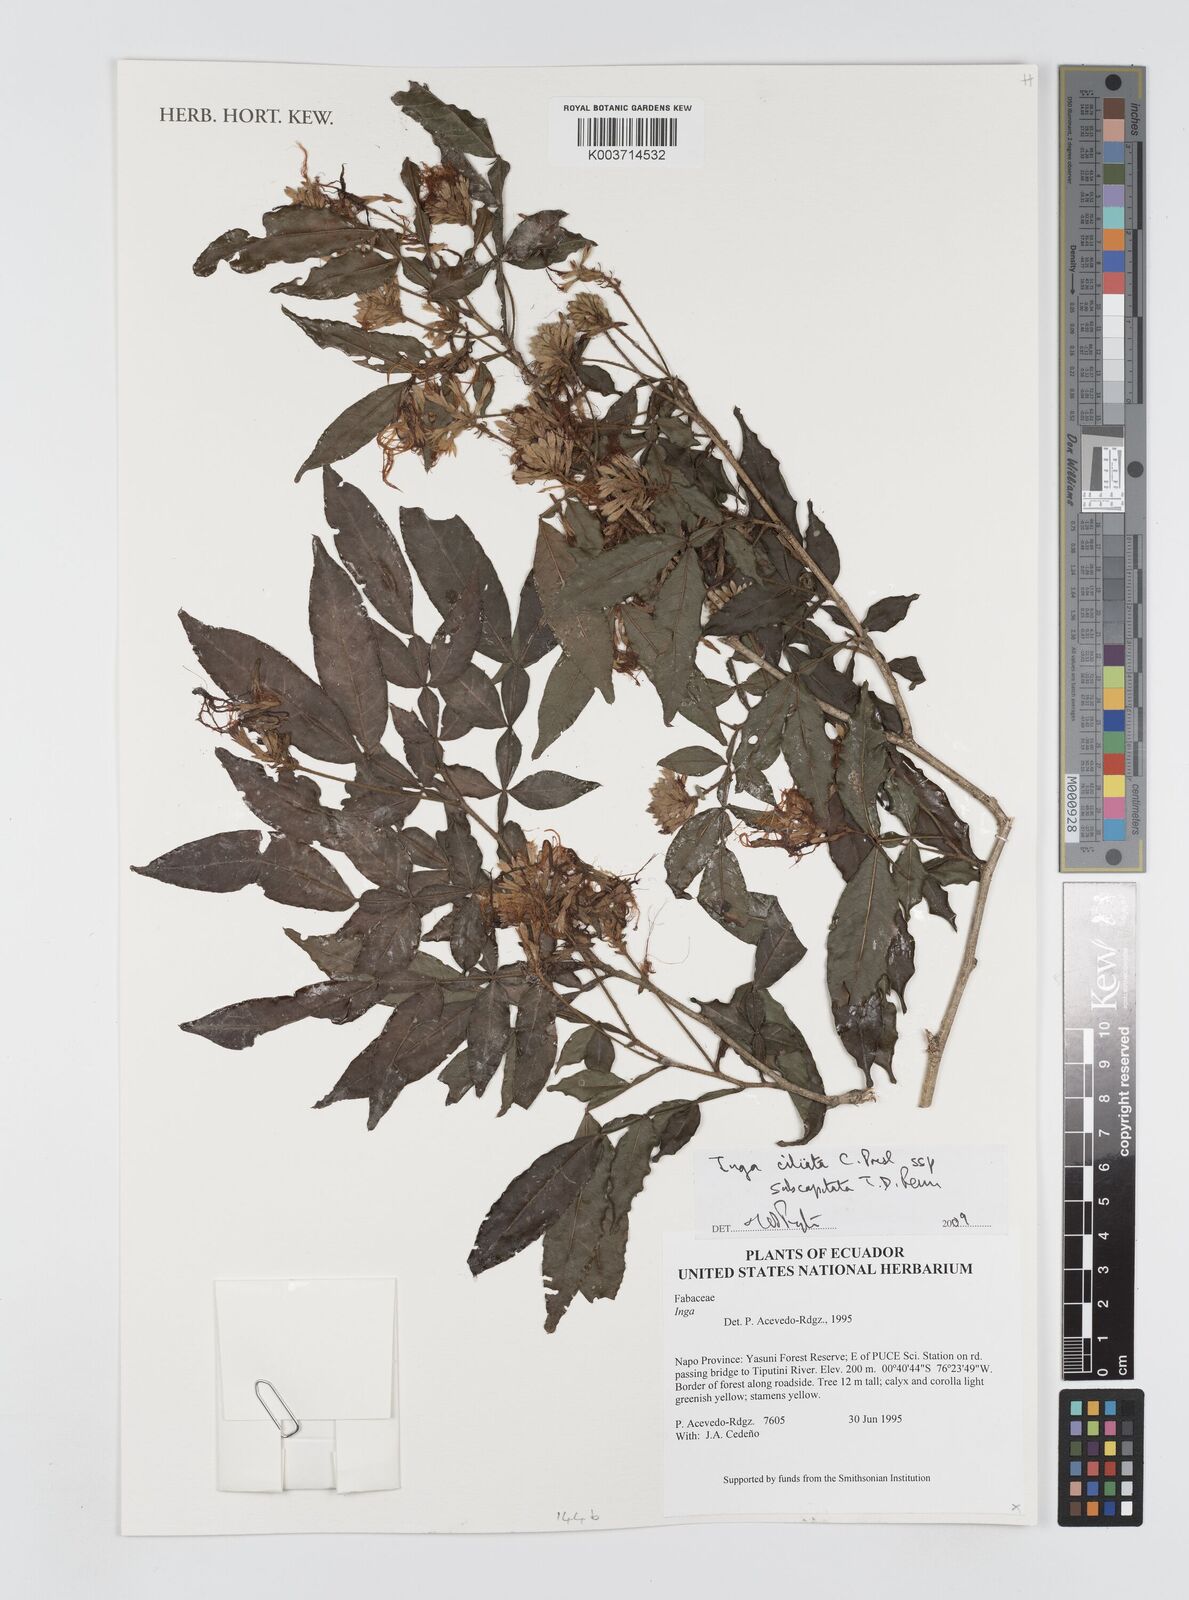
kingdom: Plantae
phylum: Tracheophyta
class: Magnoliopsida
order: Fabales
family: Fabaceae
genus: Inga
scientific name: Inga ciliata
